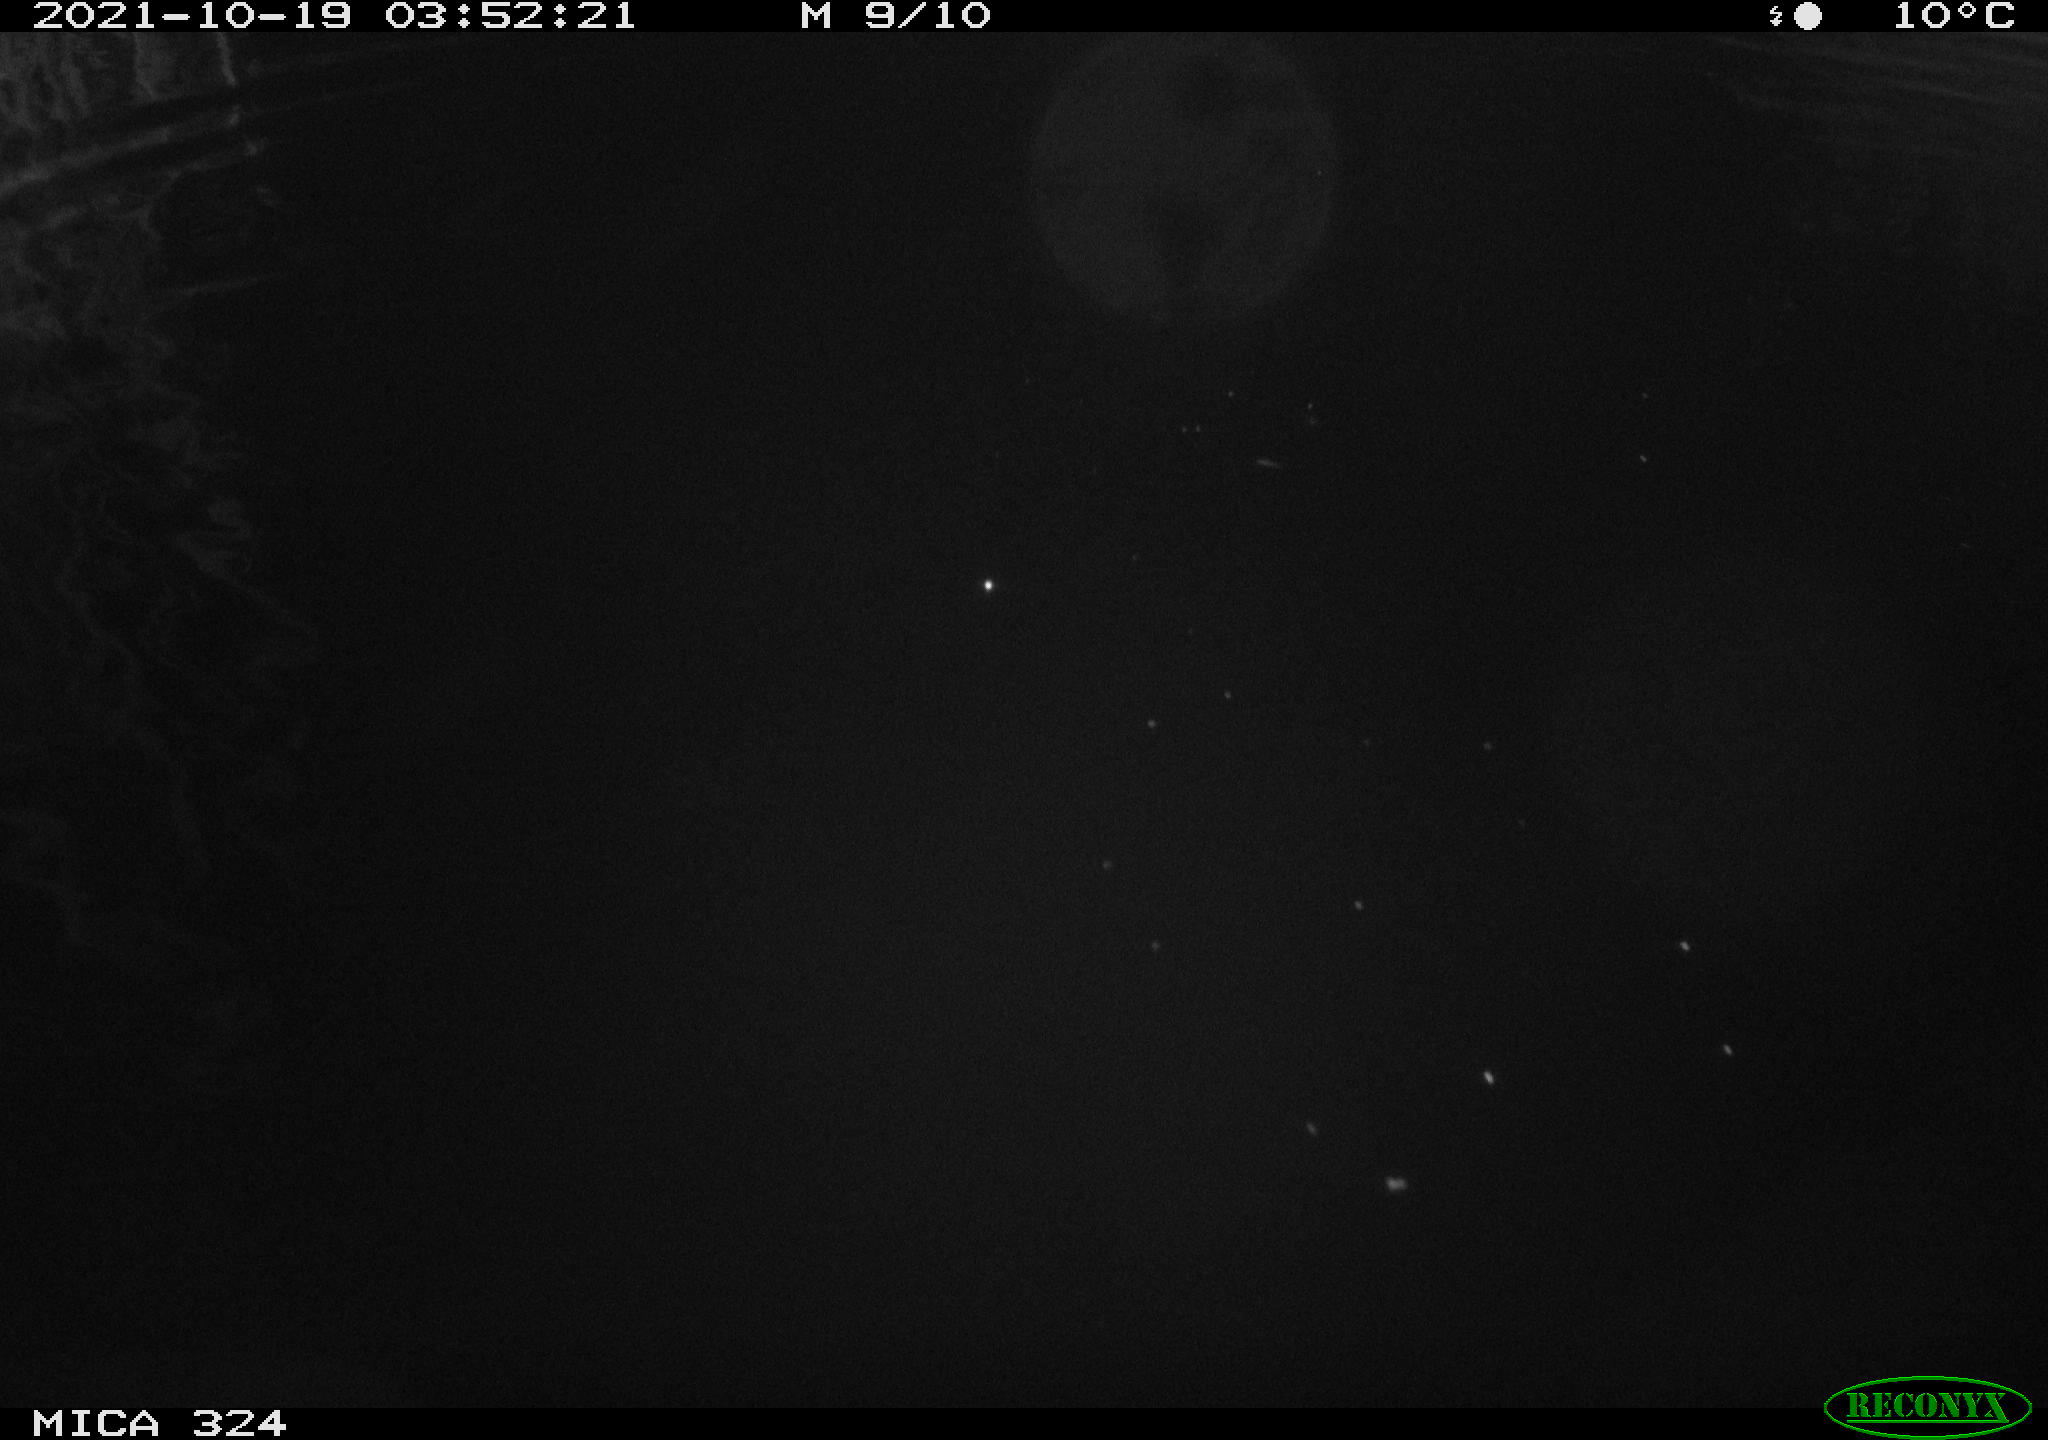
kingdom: Animalia
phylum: Chordata
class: Mammalia
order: Rodentia
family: Cricetidae
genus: Ondatra
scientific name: Ondatra zibethicus
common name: Muskrat
